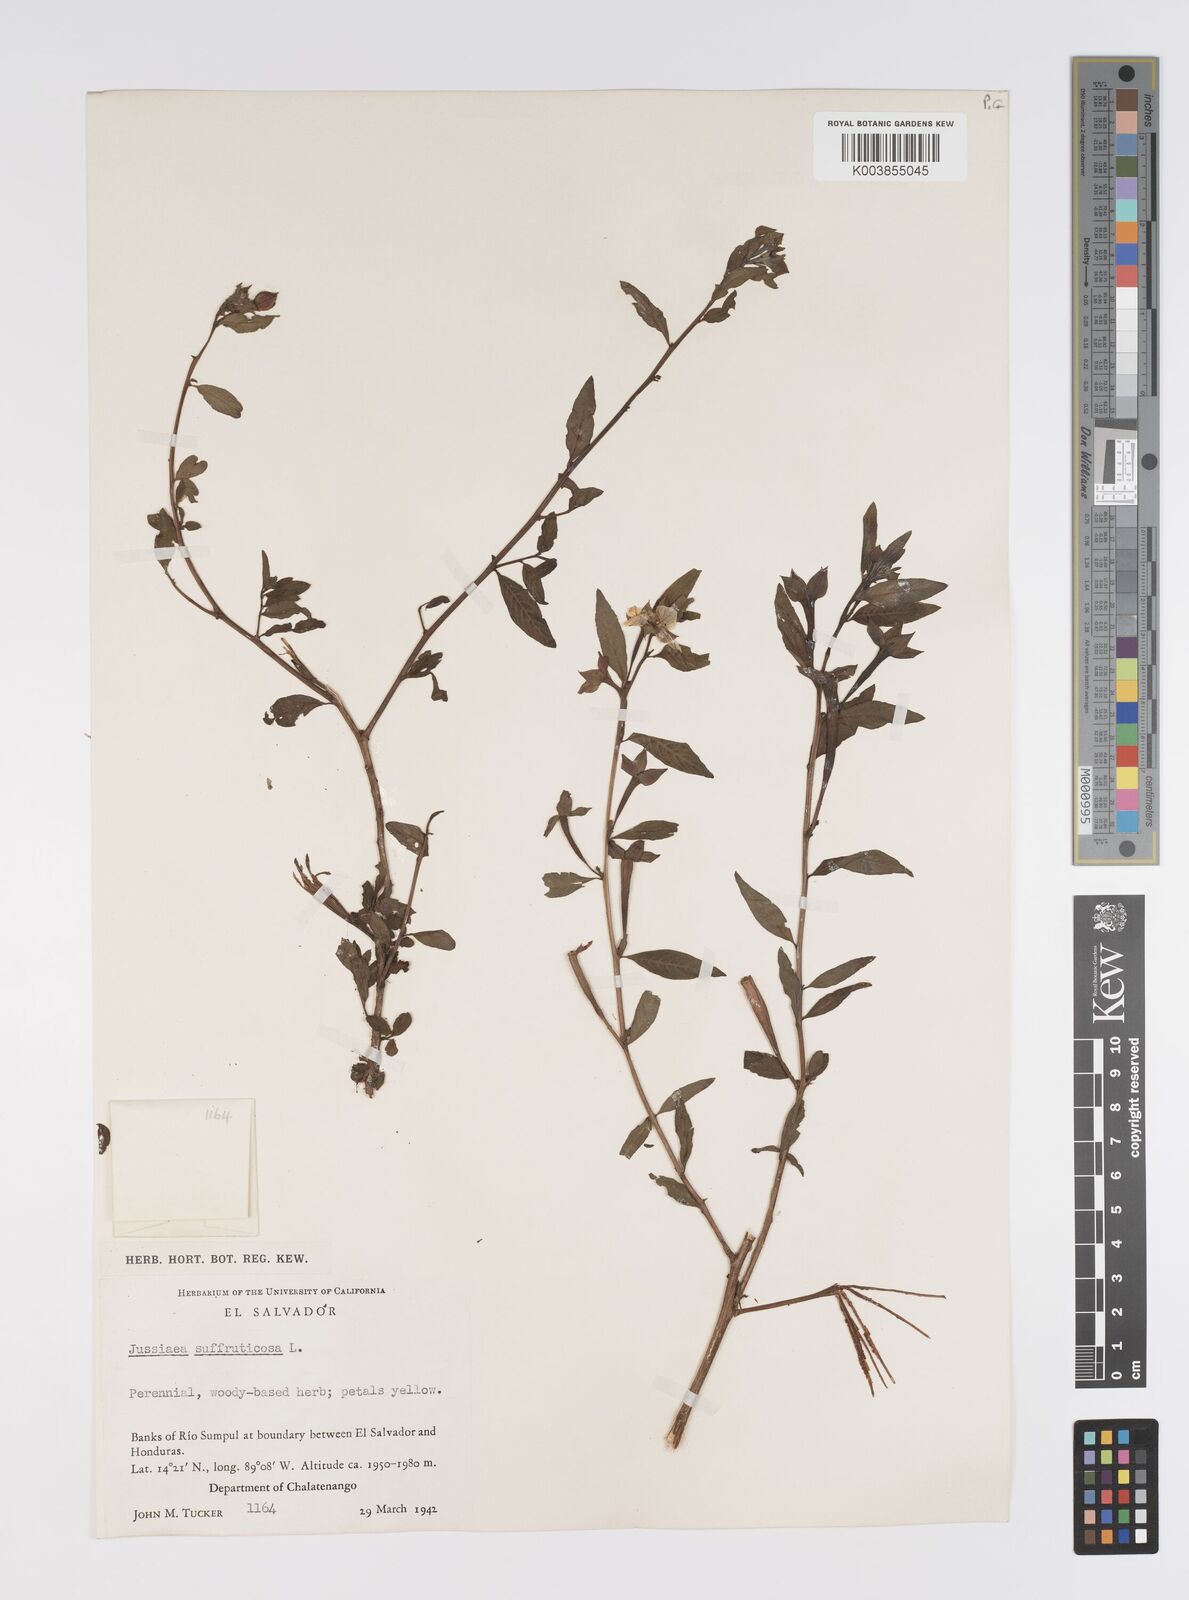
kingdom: Plantae
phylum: Tracheophyta
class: Magnoliopsida
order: Myrtales
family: Onagraceae
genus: Ludwigia
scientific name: Ludwigia octovalvis
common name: Water-primrose
